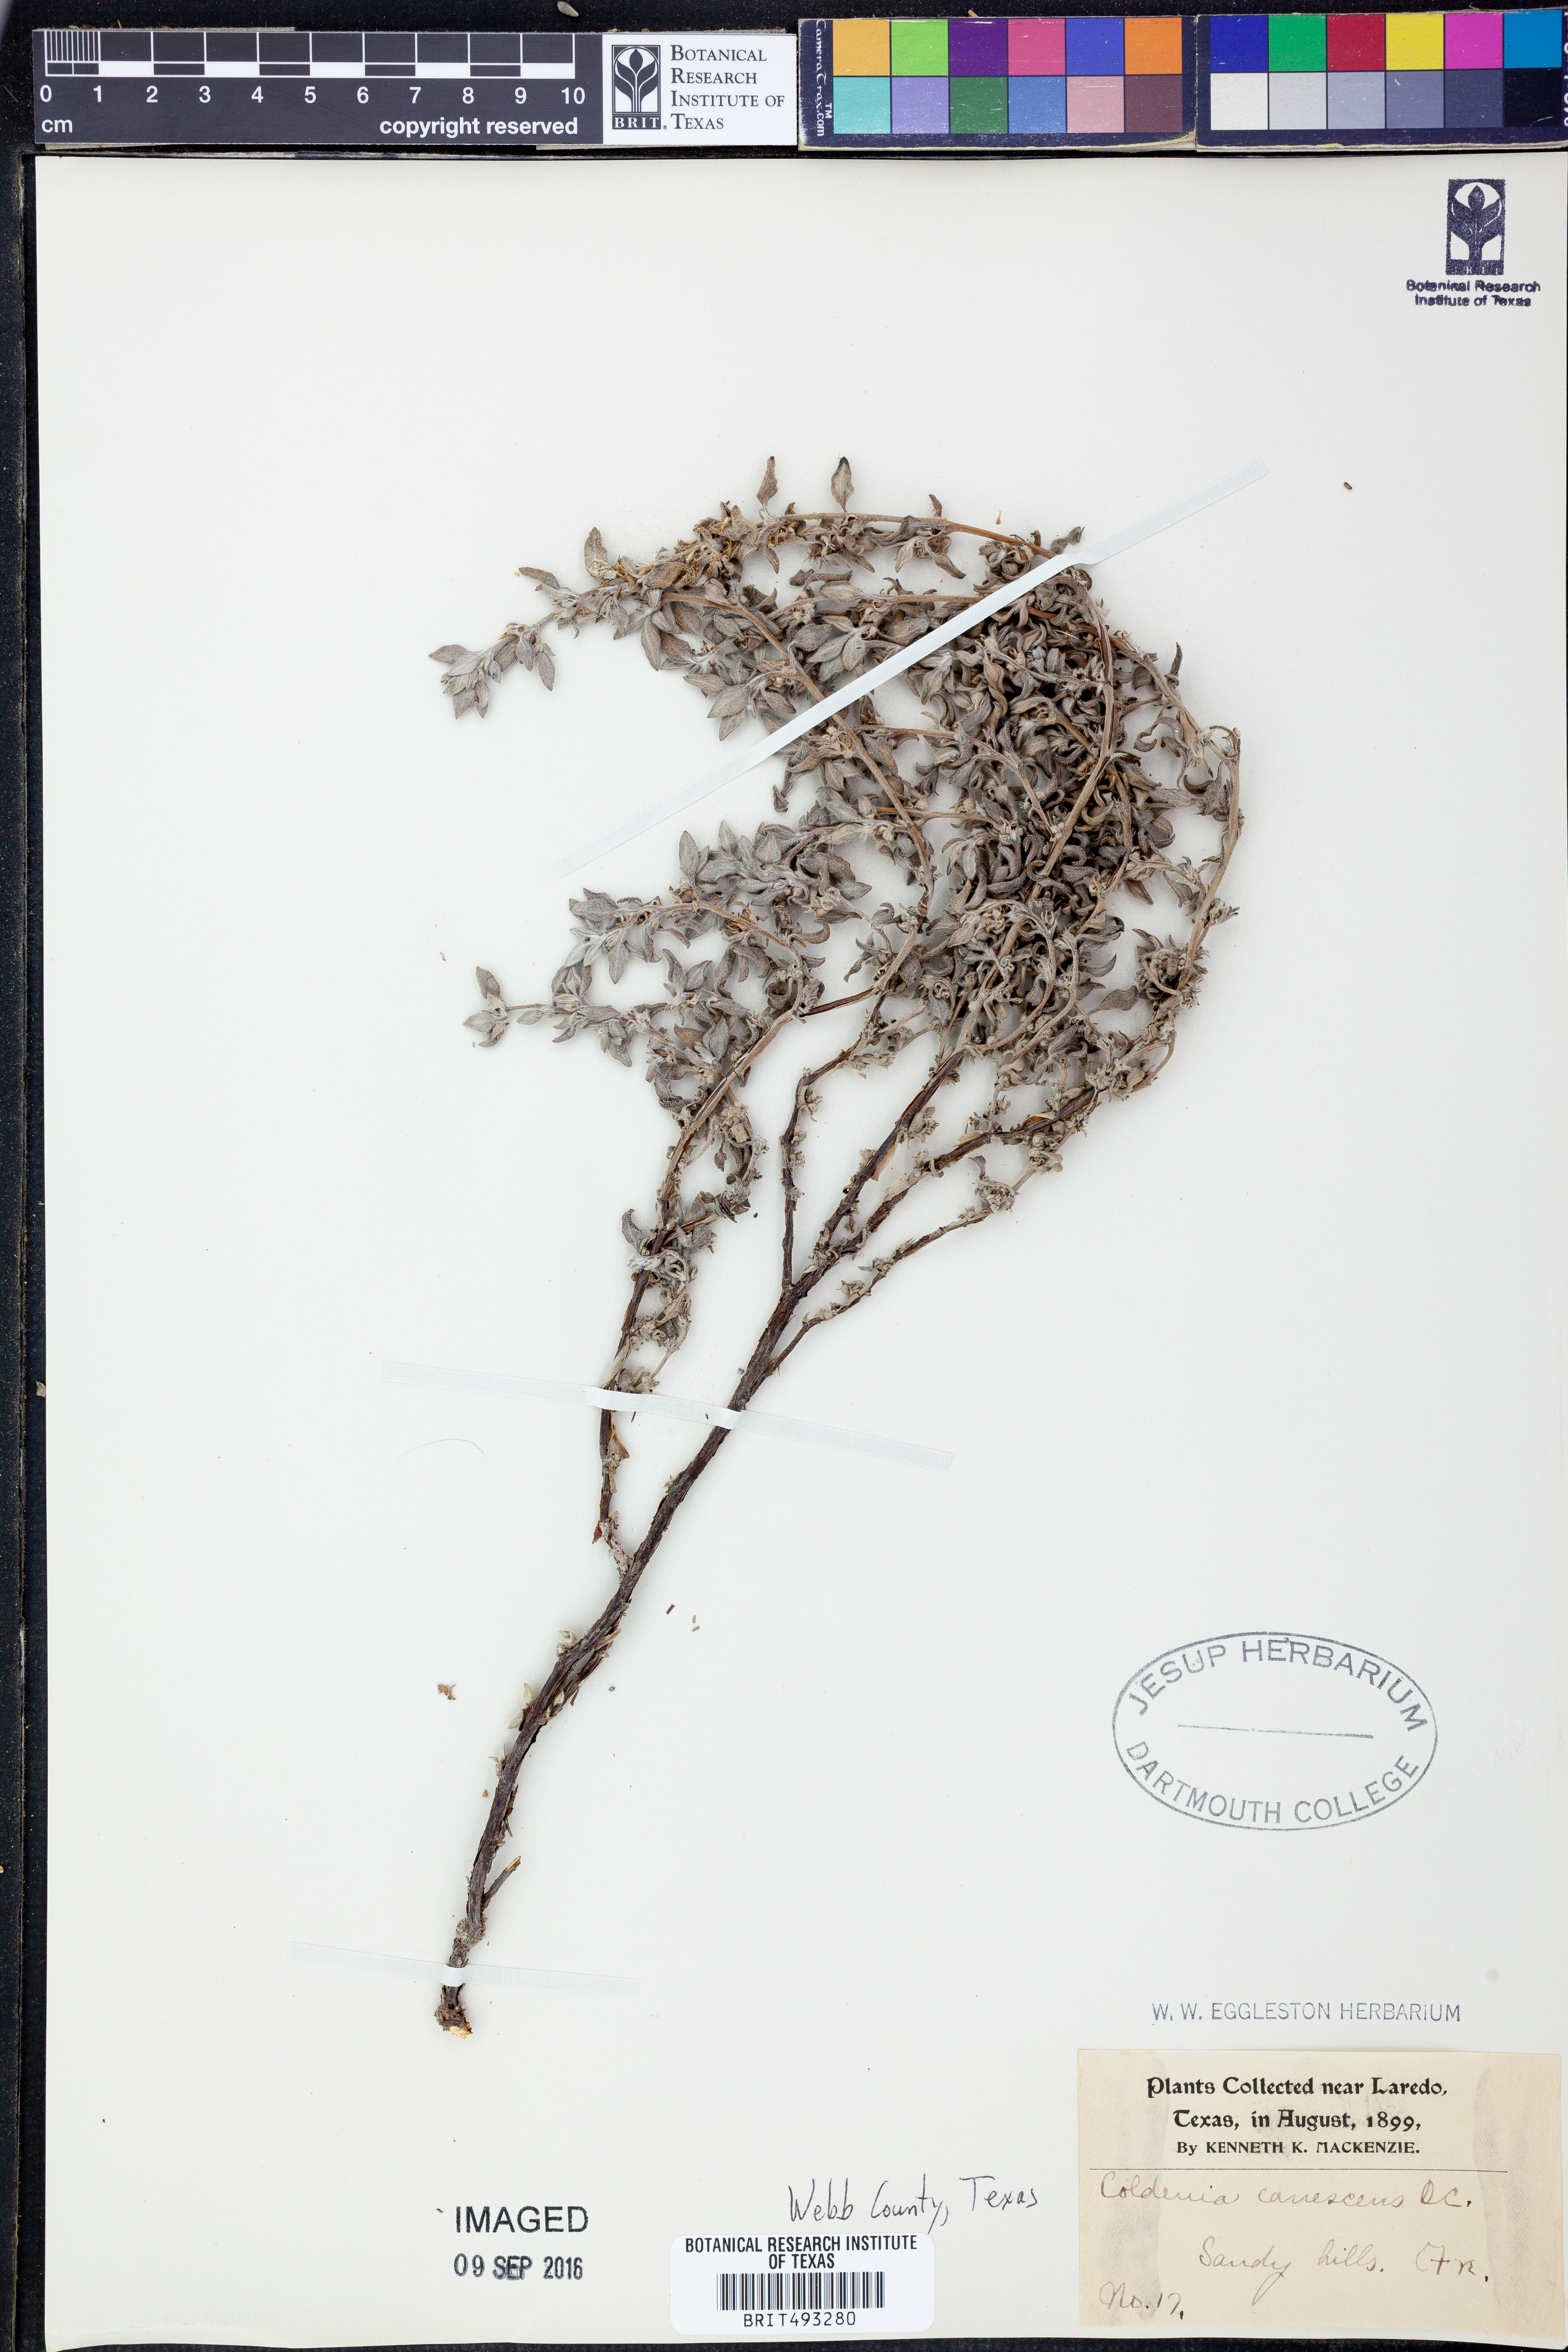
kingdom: Plantae
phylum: Tracheophyta
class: Magnoliopsida
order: Boraginales
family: Ehretiaceae
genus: Tiquilia
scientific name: Tiquilia canescens
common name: Hairy tiquilia
